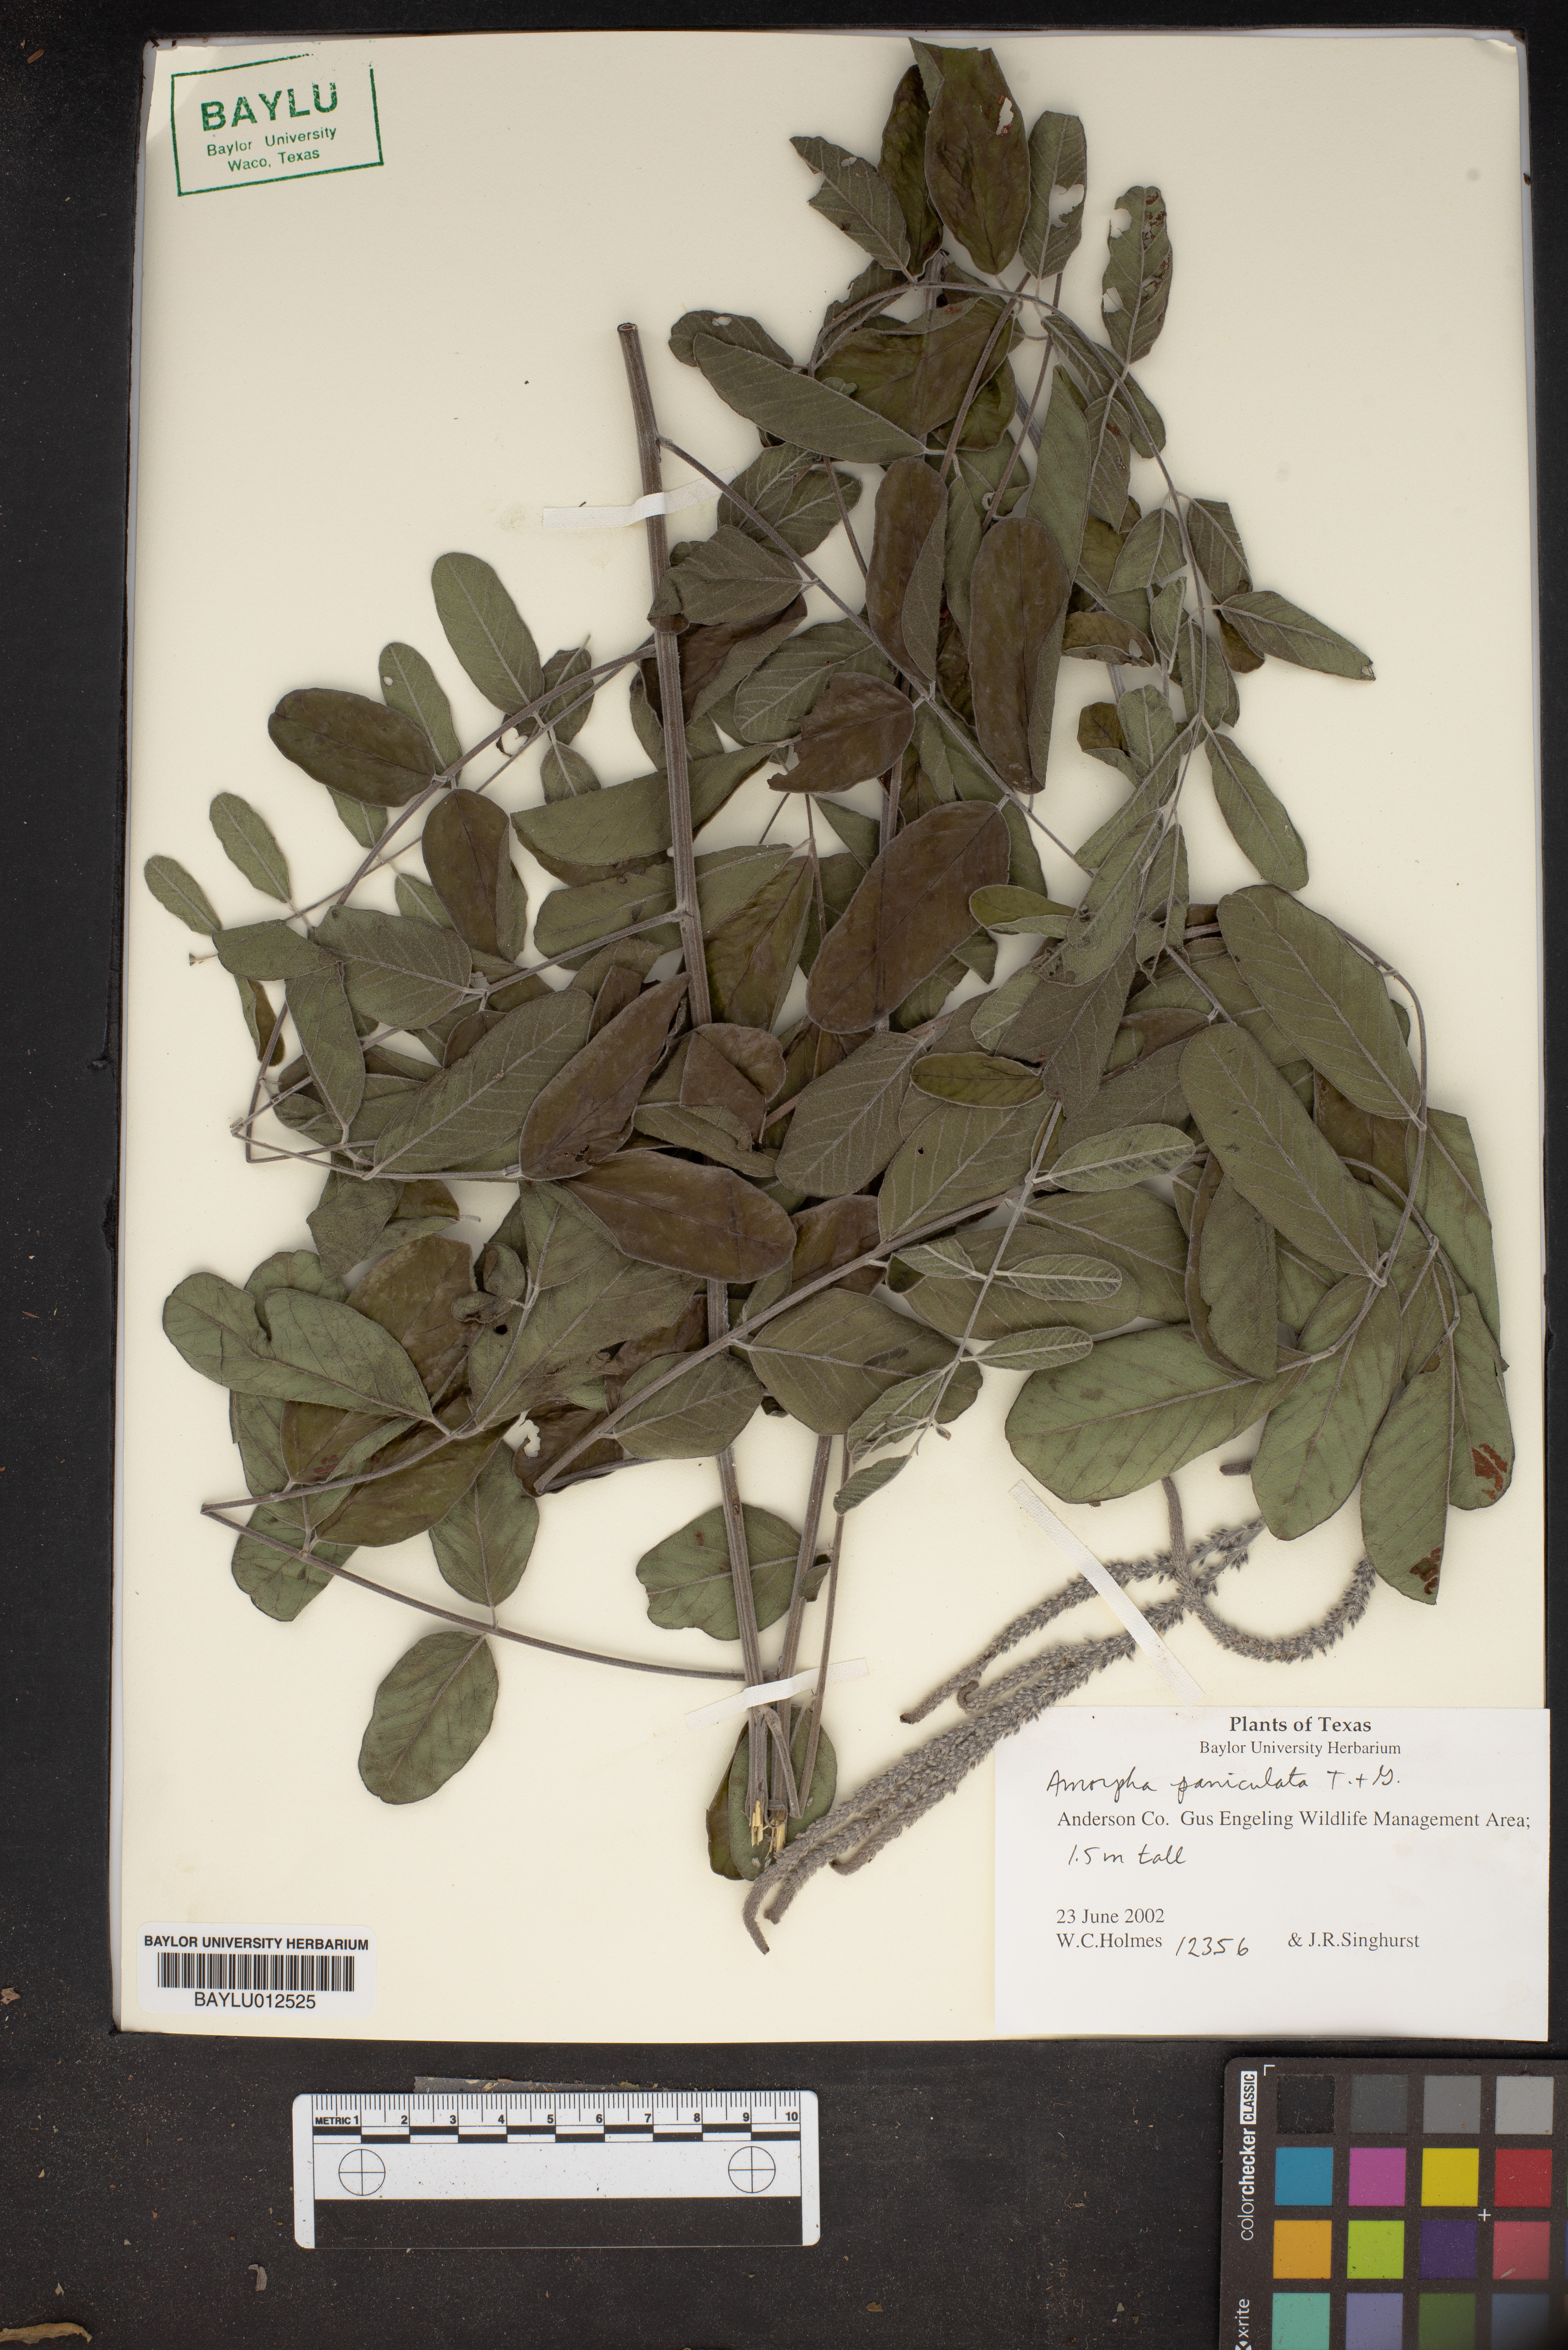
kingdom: Plantae
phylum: Tracheophyta
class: Magnoliopsida
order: Fabales
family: Fabaceae
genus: Amorpha
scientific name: Amorpha paniculata
